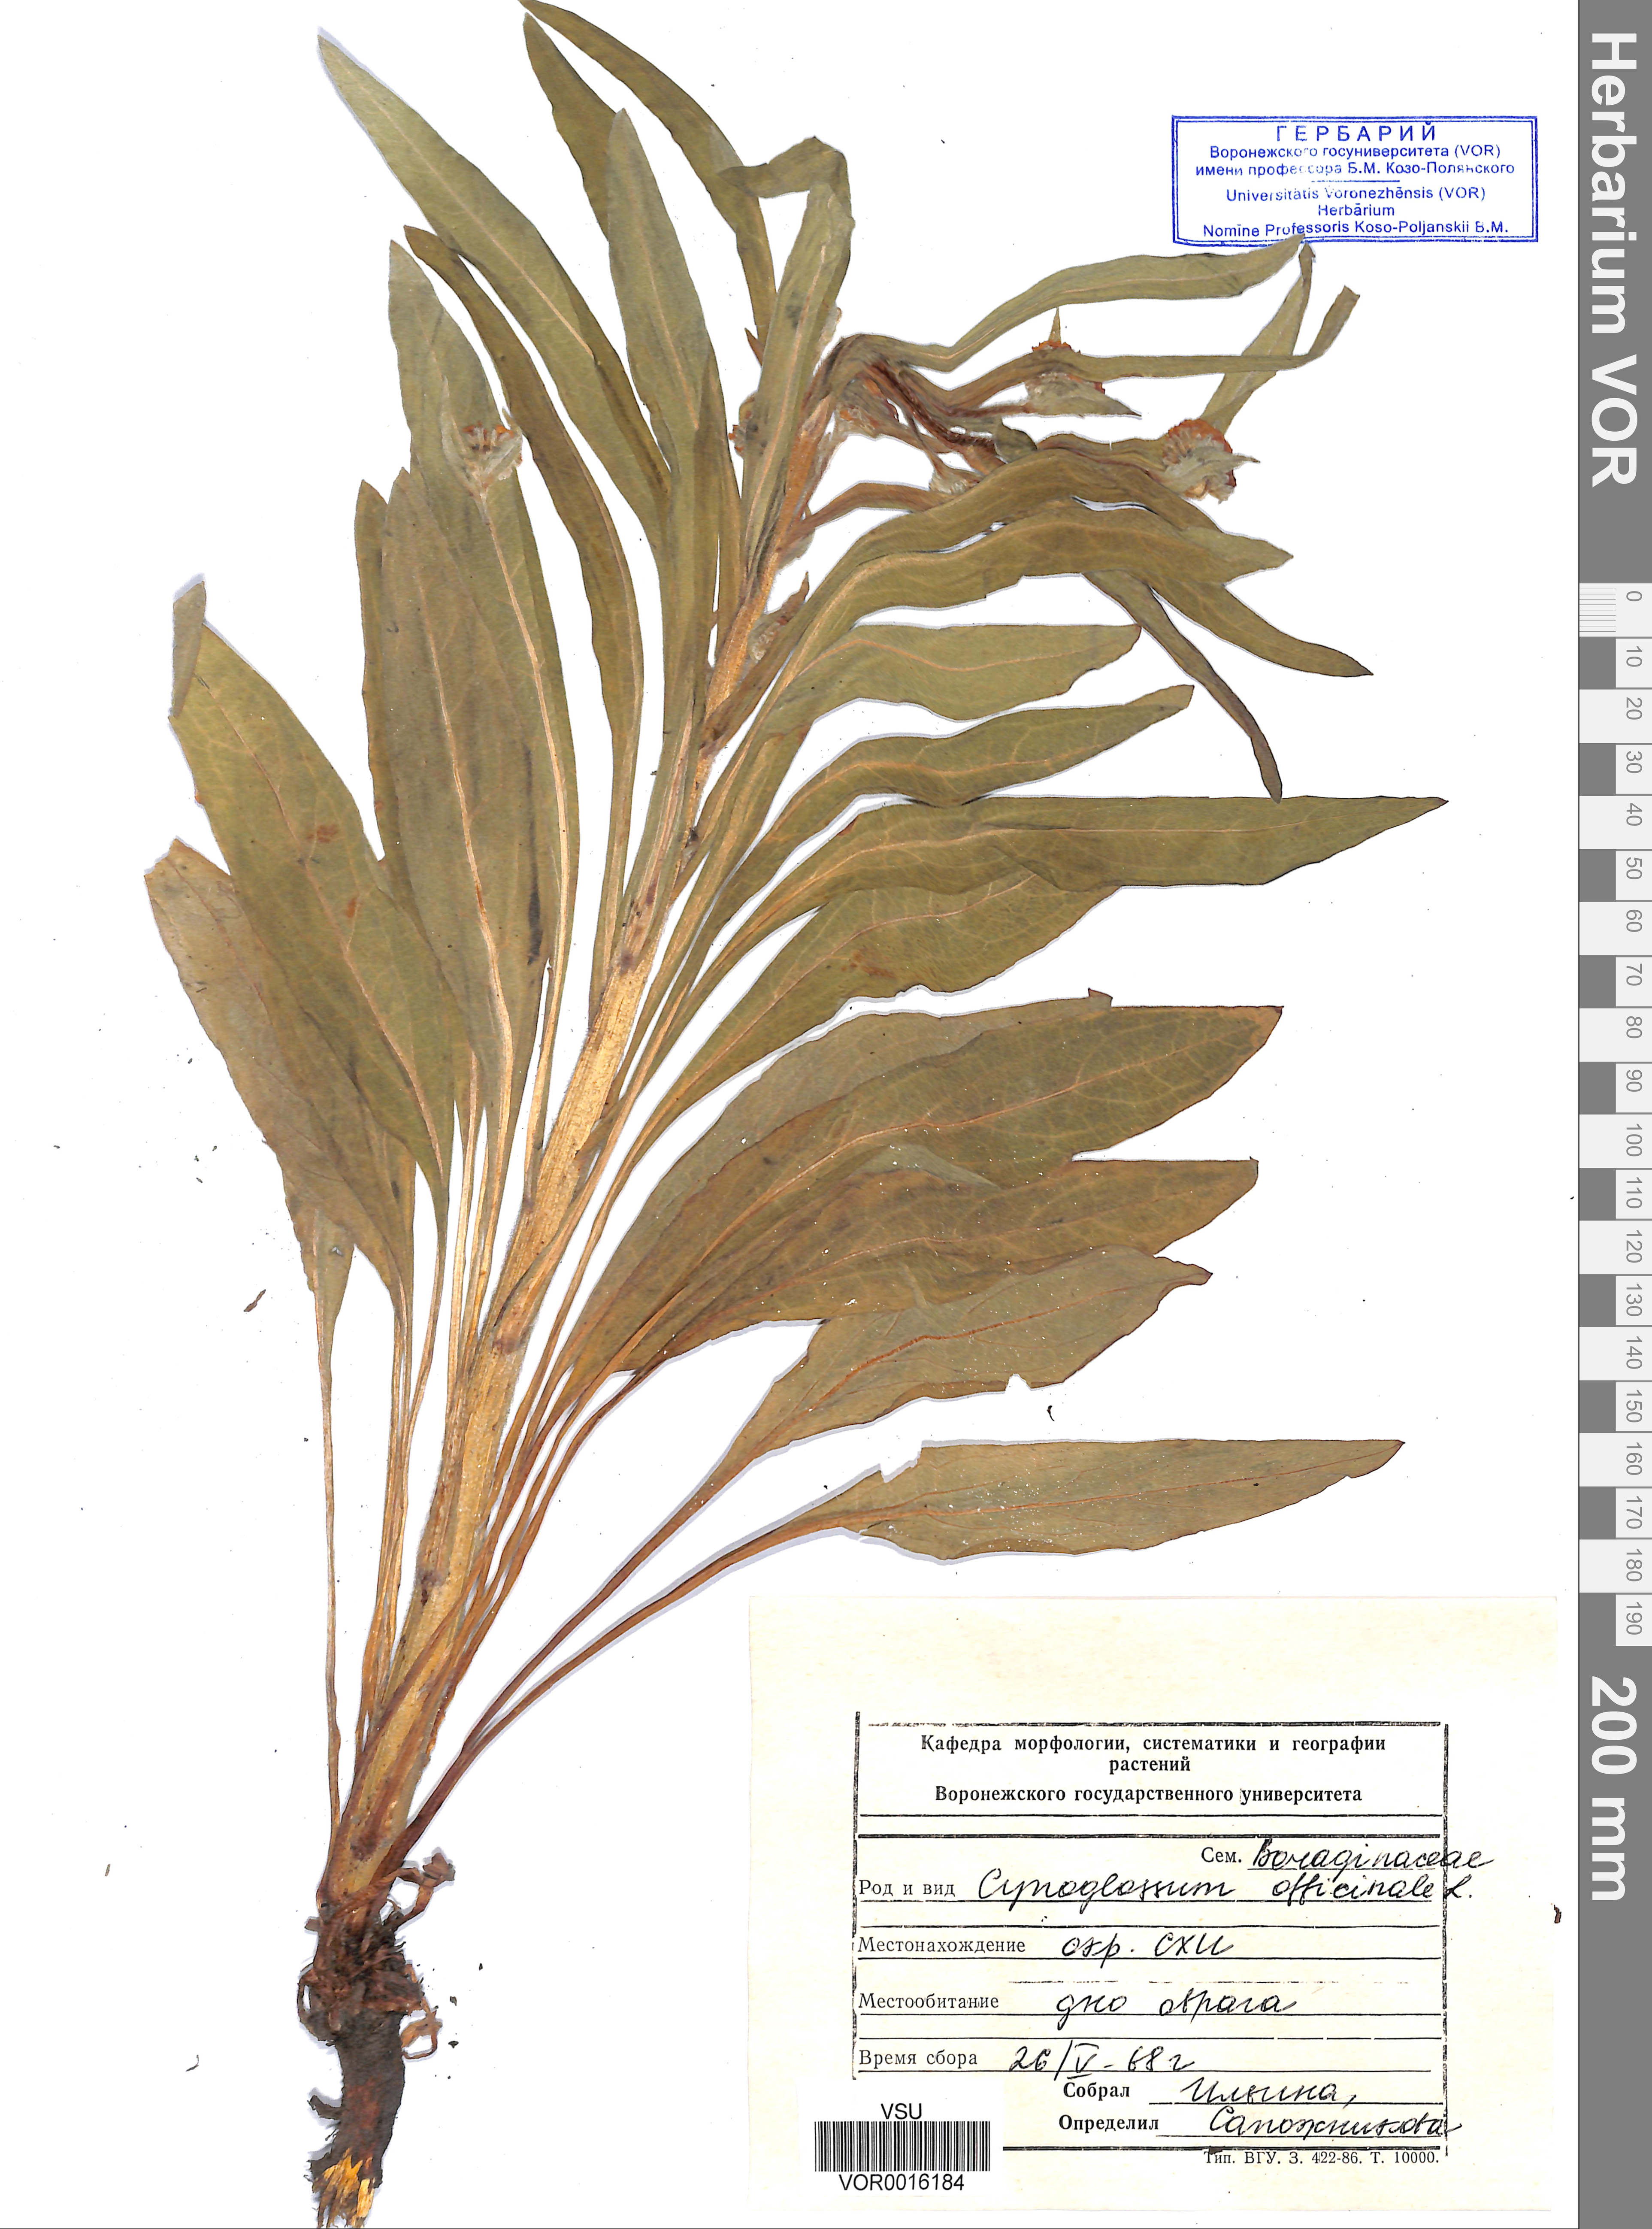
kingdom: Plantae
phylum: Tracheophyta
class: Magnoliopsida
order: Boraginales
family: Boraginaceae
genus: Cynoglossum
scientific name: Cynoglossum officinale
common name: Hound's-tongue
